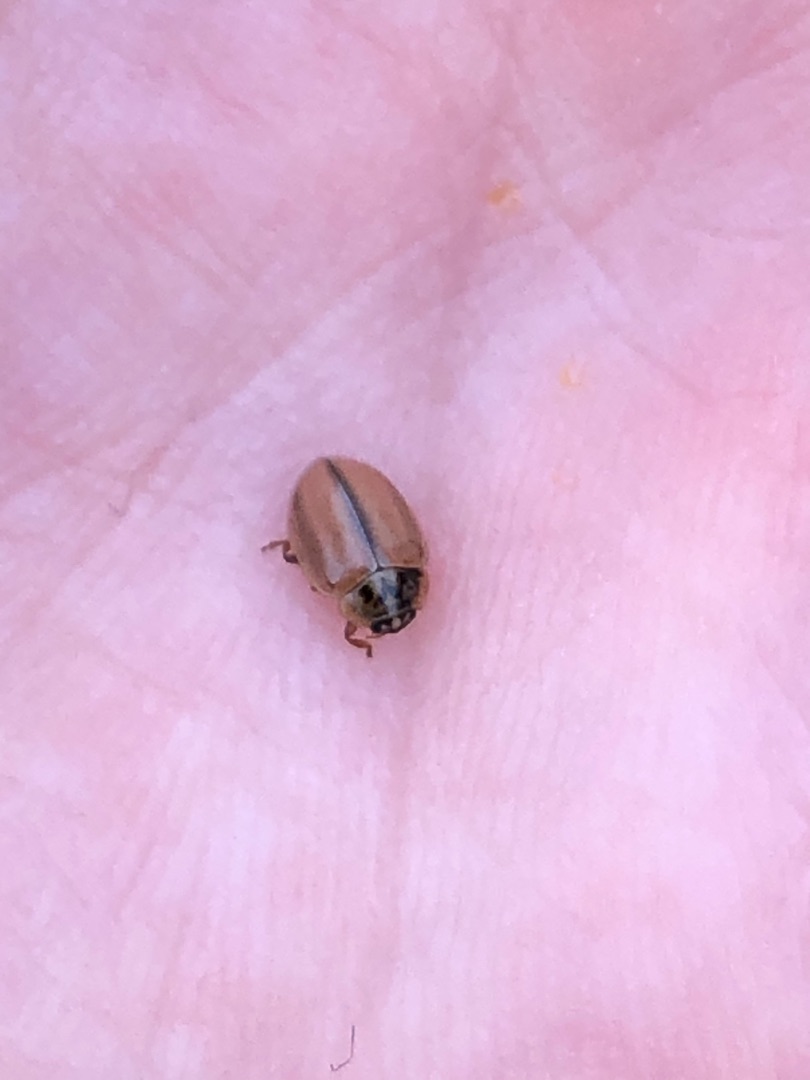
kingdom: Animalia
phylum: Arthropoda
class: Insecta
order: Coleoptera
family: Coccinellidae
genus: Aphidecta
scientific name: Aphidecta obliterata
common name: Uplettet mariehøne
